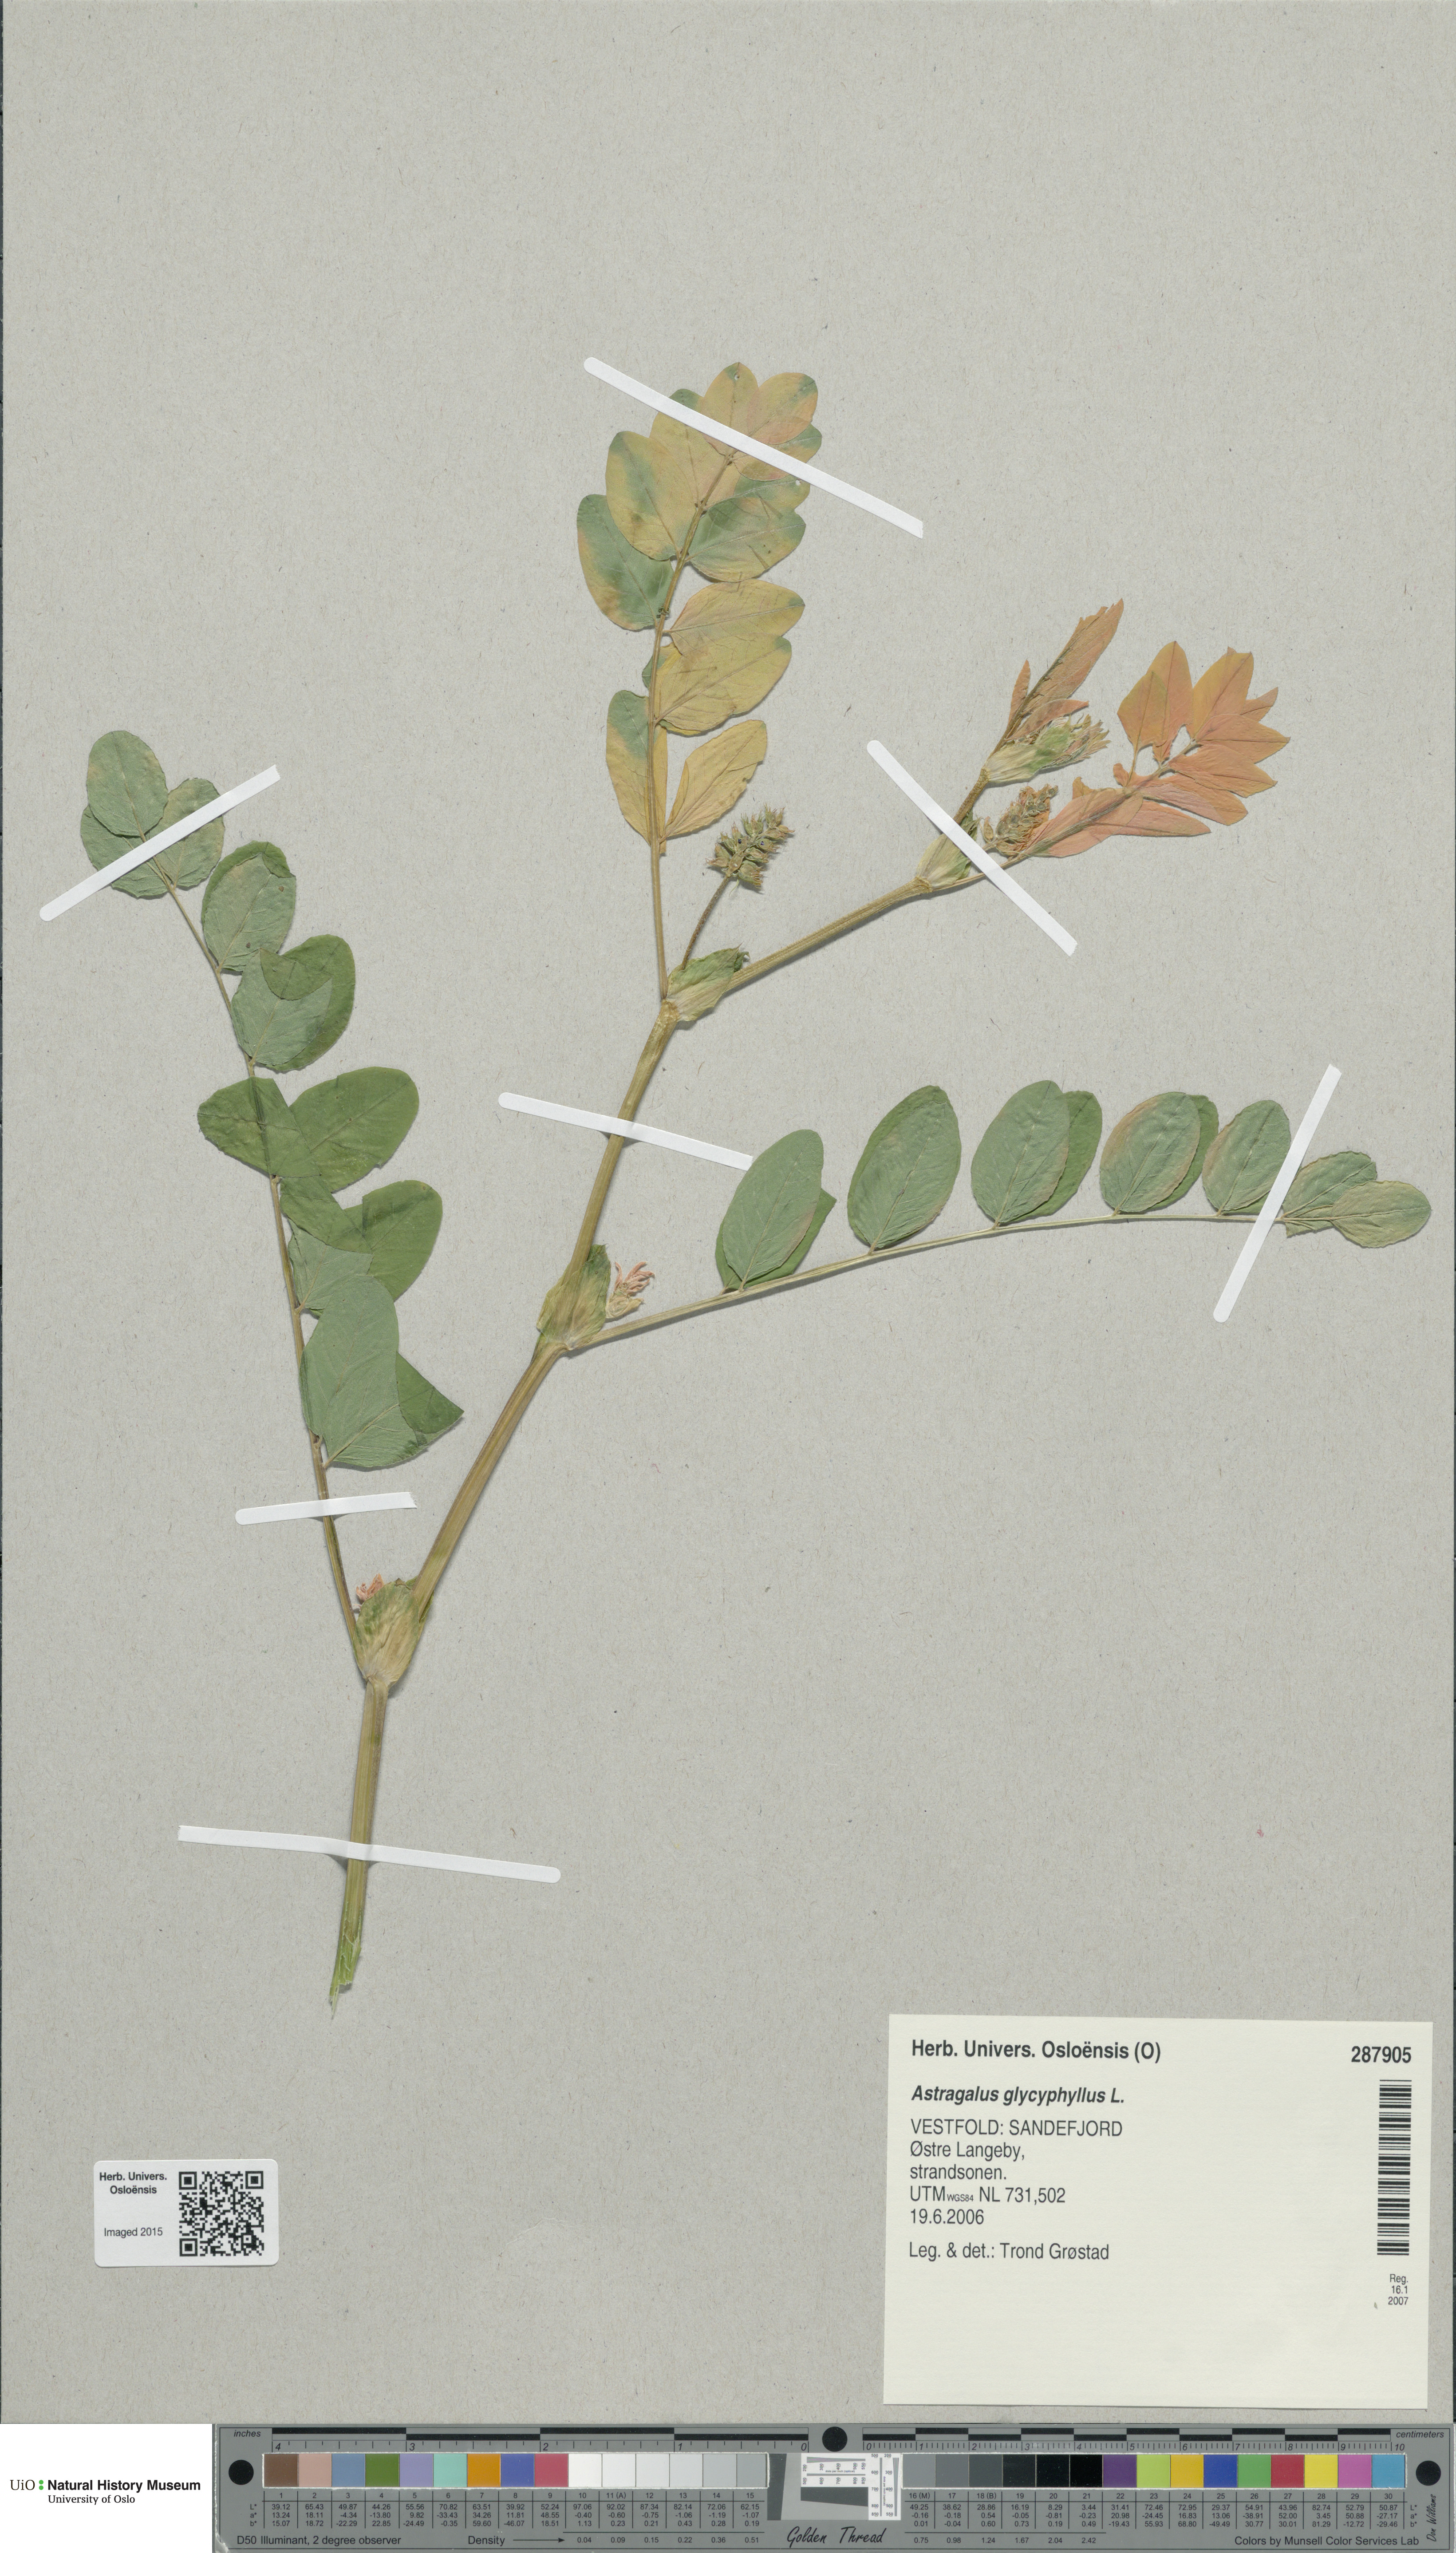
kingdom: Plantae
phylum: Tracheophyta
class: Magnoliopsida
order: Fabales
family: Fabaceae
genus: Astragalus
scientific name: Astragalus glycyphyllos
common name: Wild liquorice
